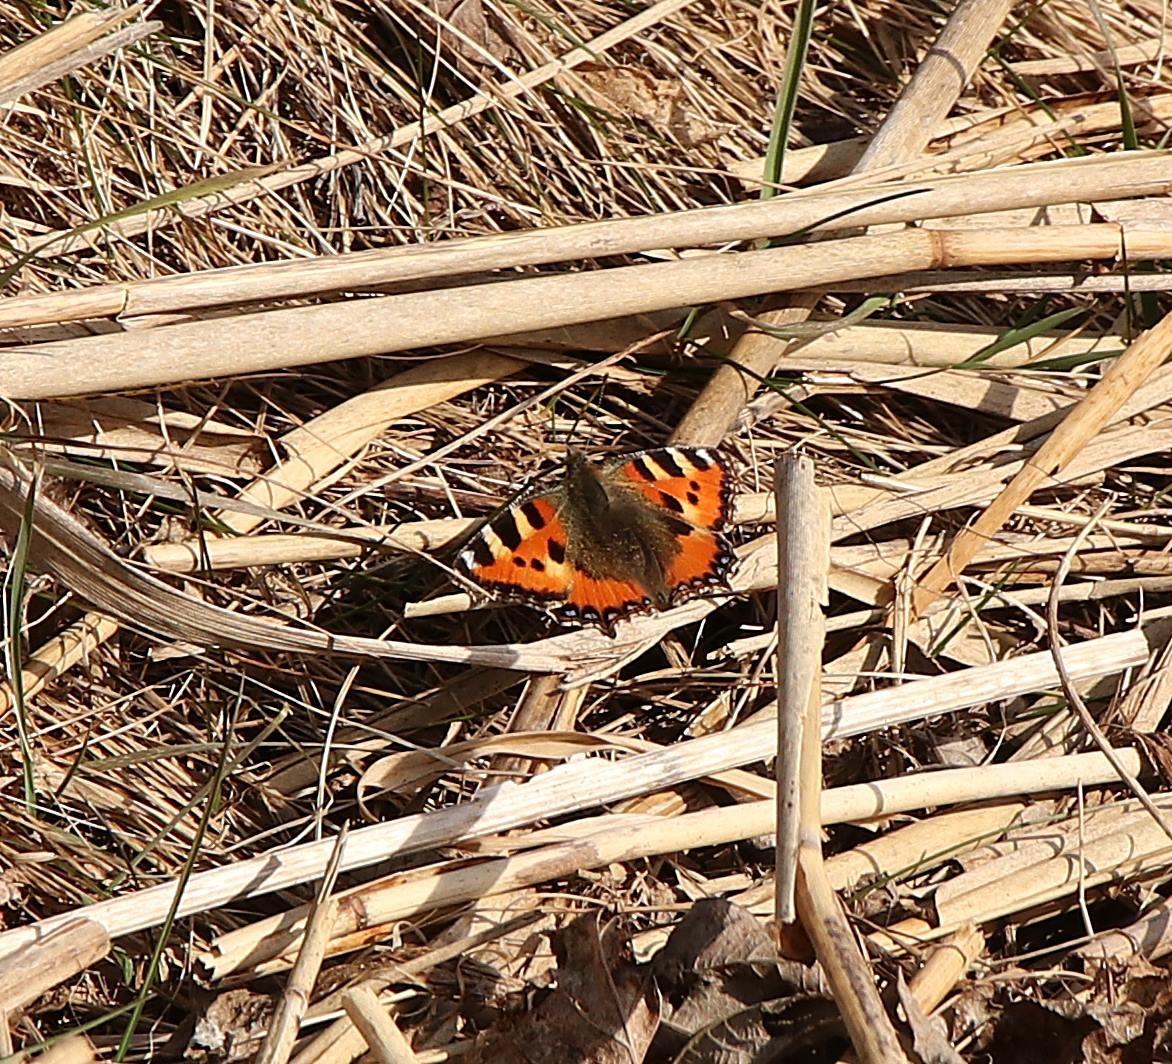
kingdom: Animalia
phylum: Arthropoda
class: Insecta
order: Lepidoptera
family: Nymphalidae
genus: Aglais
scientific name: Aglais urticae
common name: Nældens takvinge
